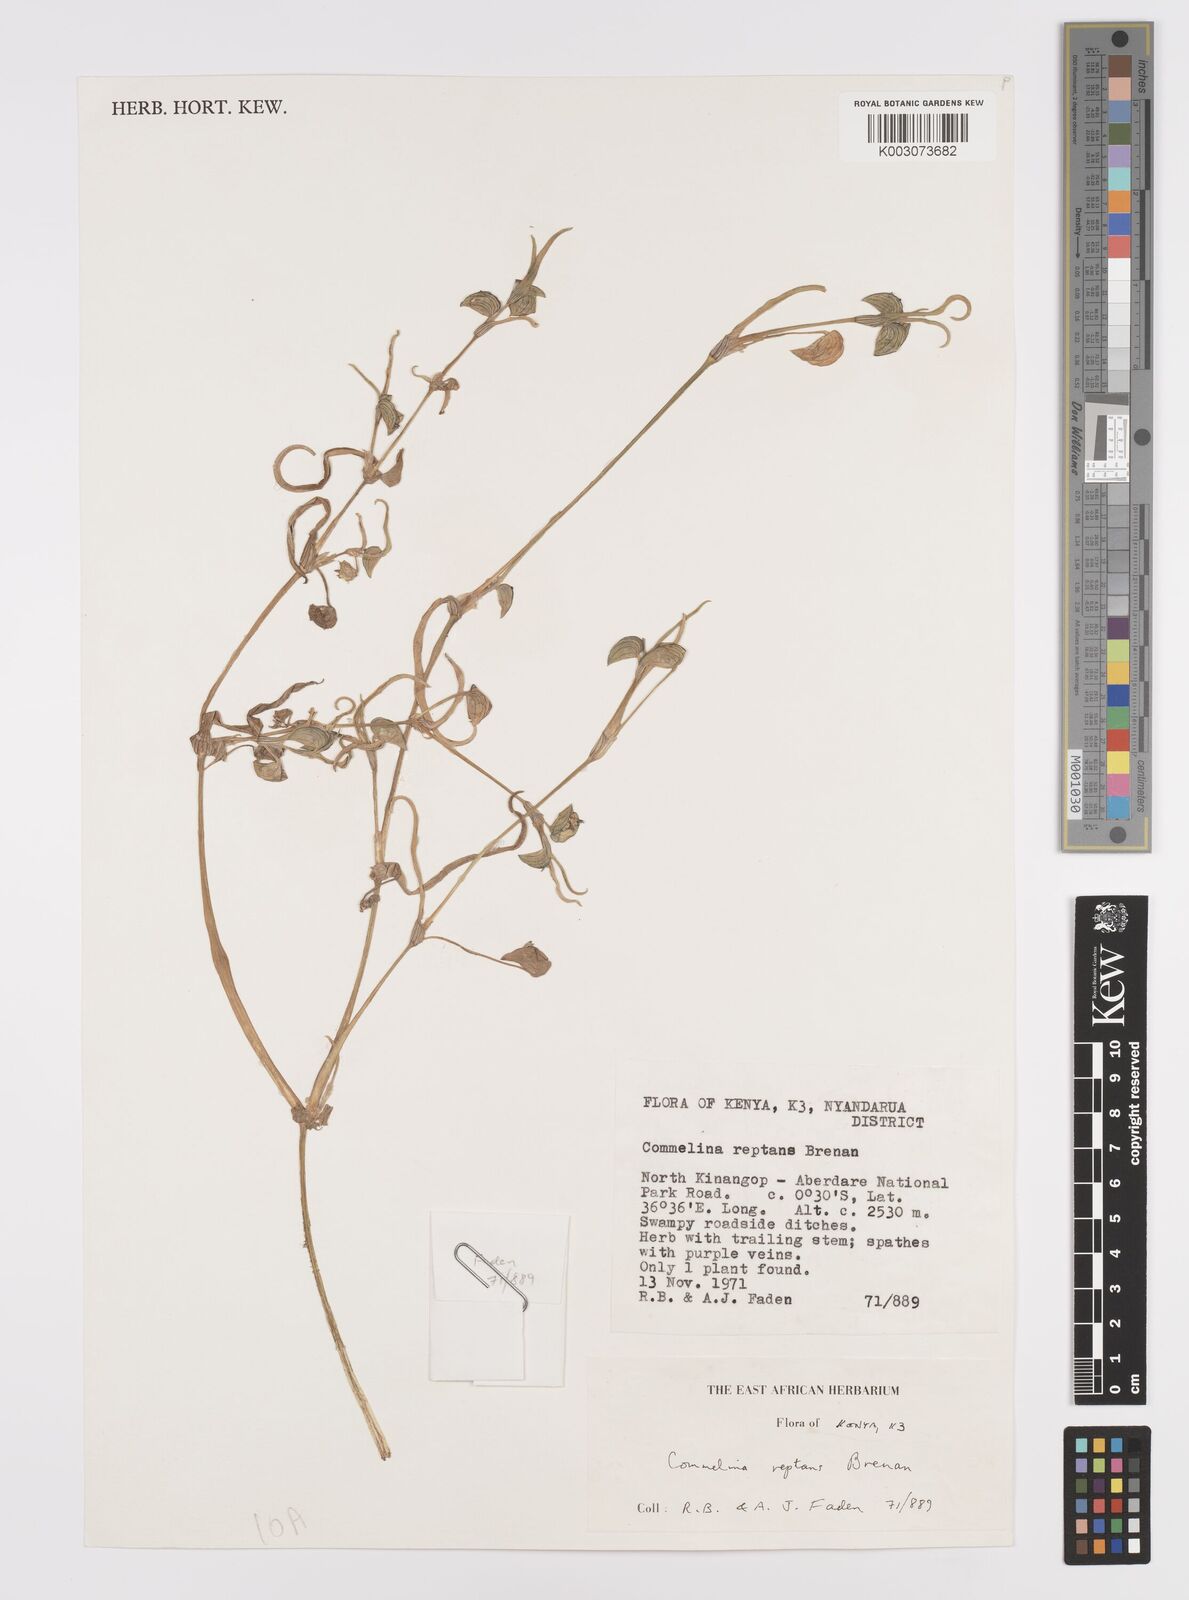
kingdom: Plantae
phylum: Tracheophyta
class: Liliopsida
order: Commelinales
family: Commelinaceae
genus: Commelina
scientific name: Commelina reptans
